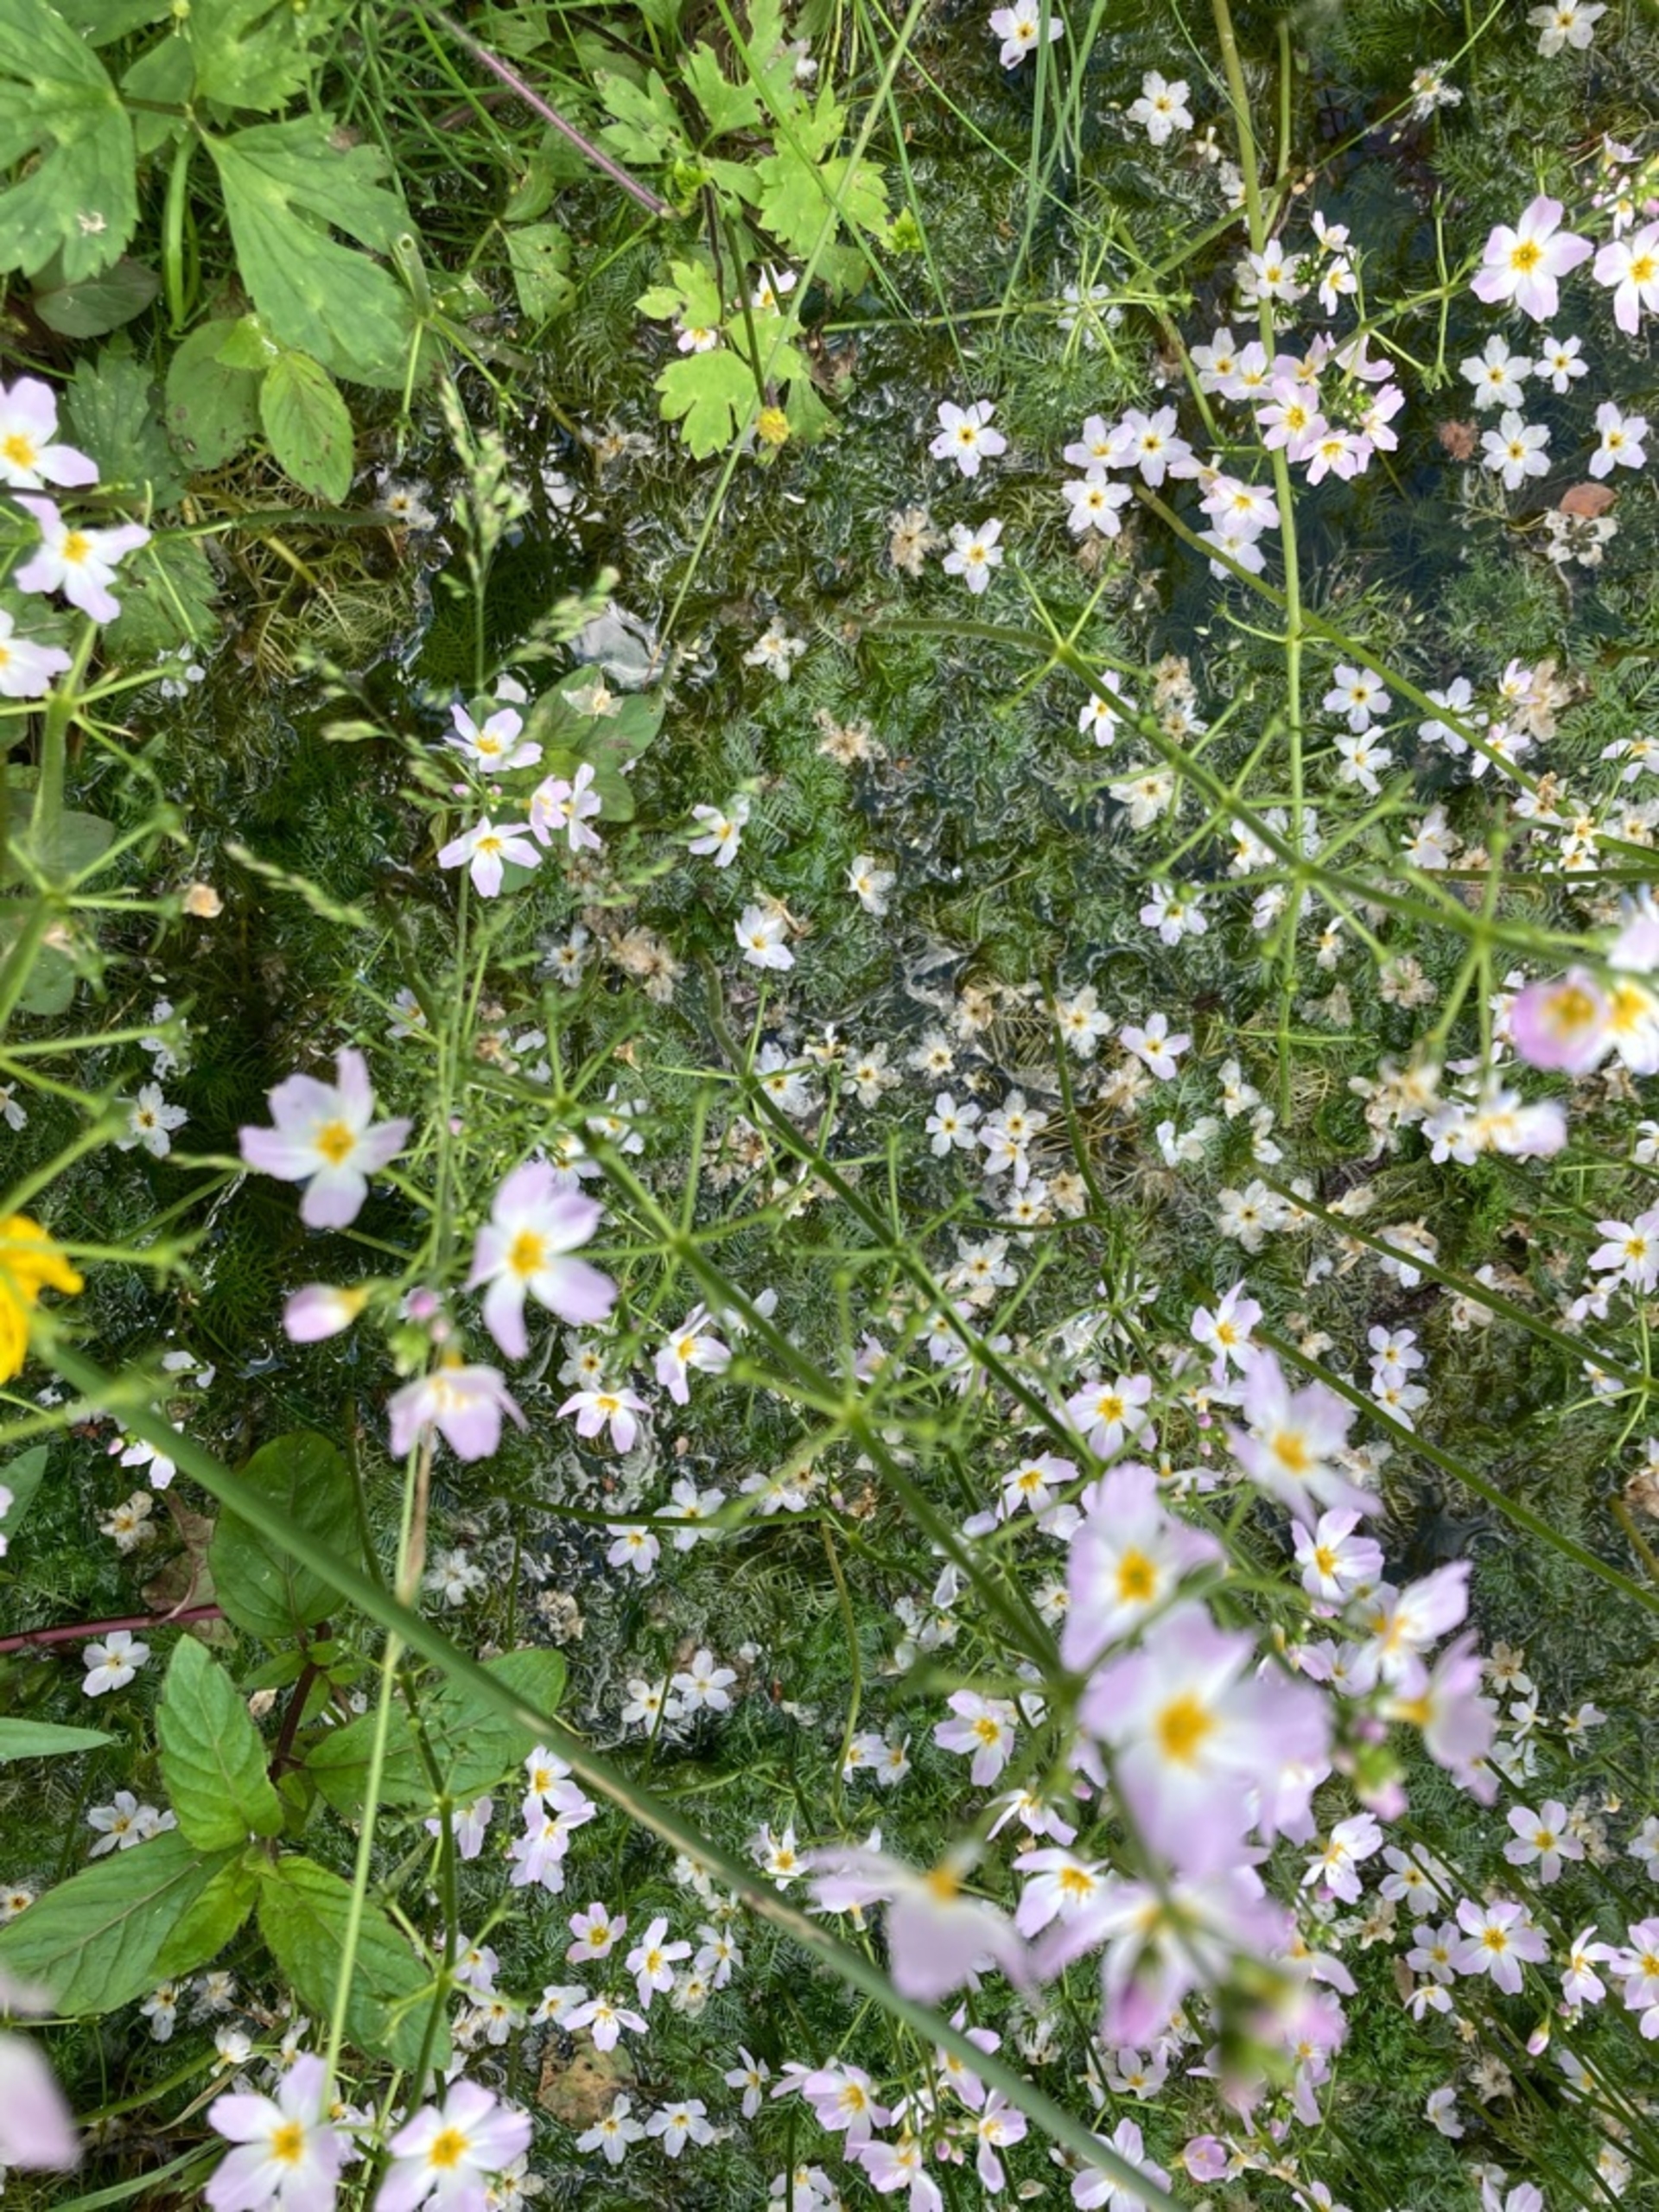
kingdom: Plantae
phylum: Tracheophyta
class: Magnoliopsida
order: Ericales
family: Primulaceae
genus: Hottonia
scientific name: Hottonia palustris
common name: Vandrøllike
